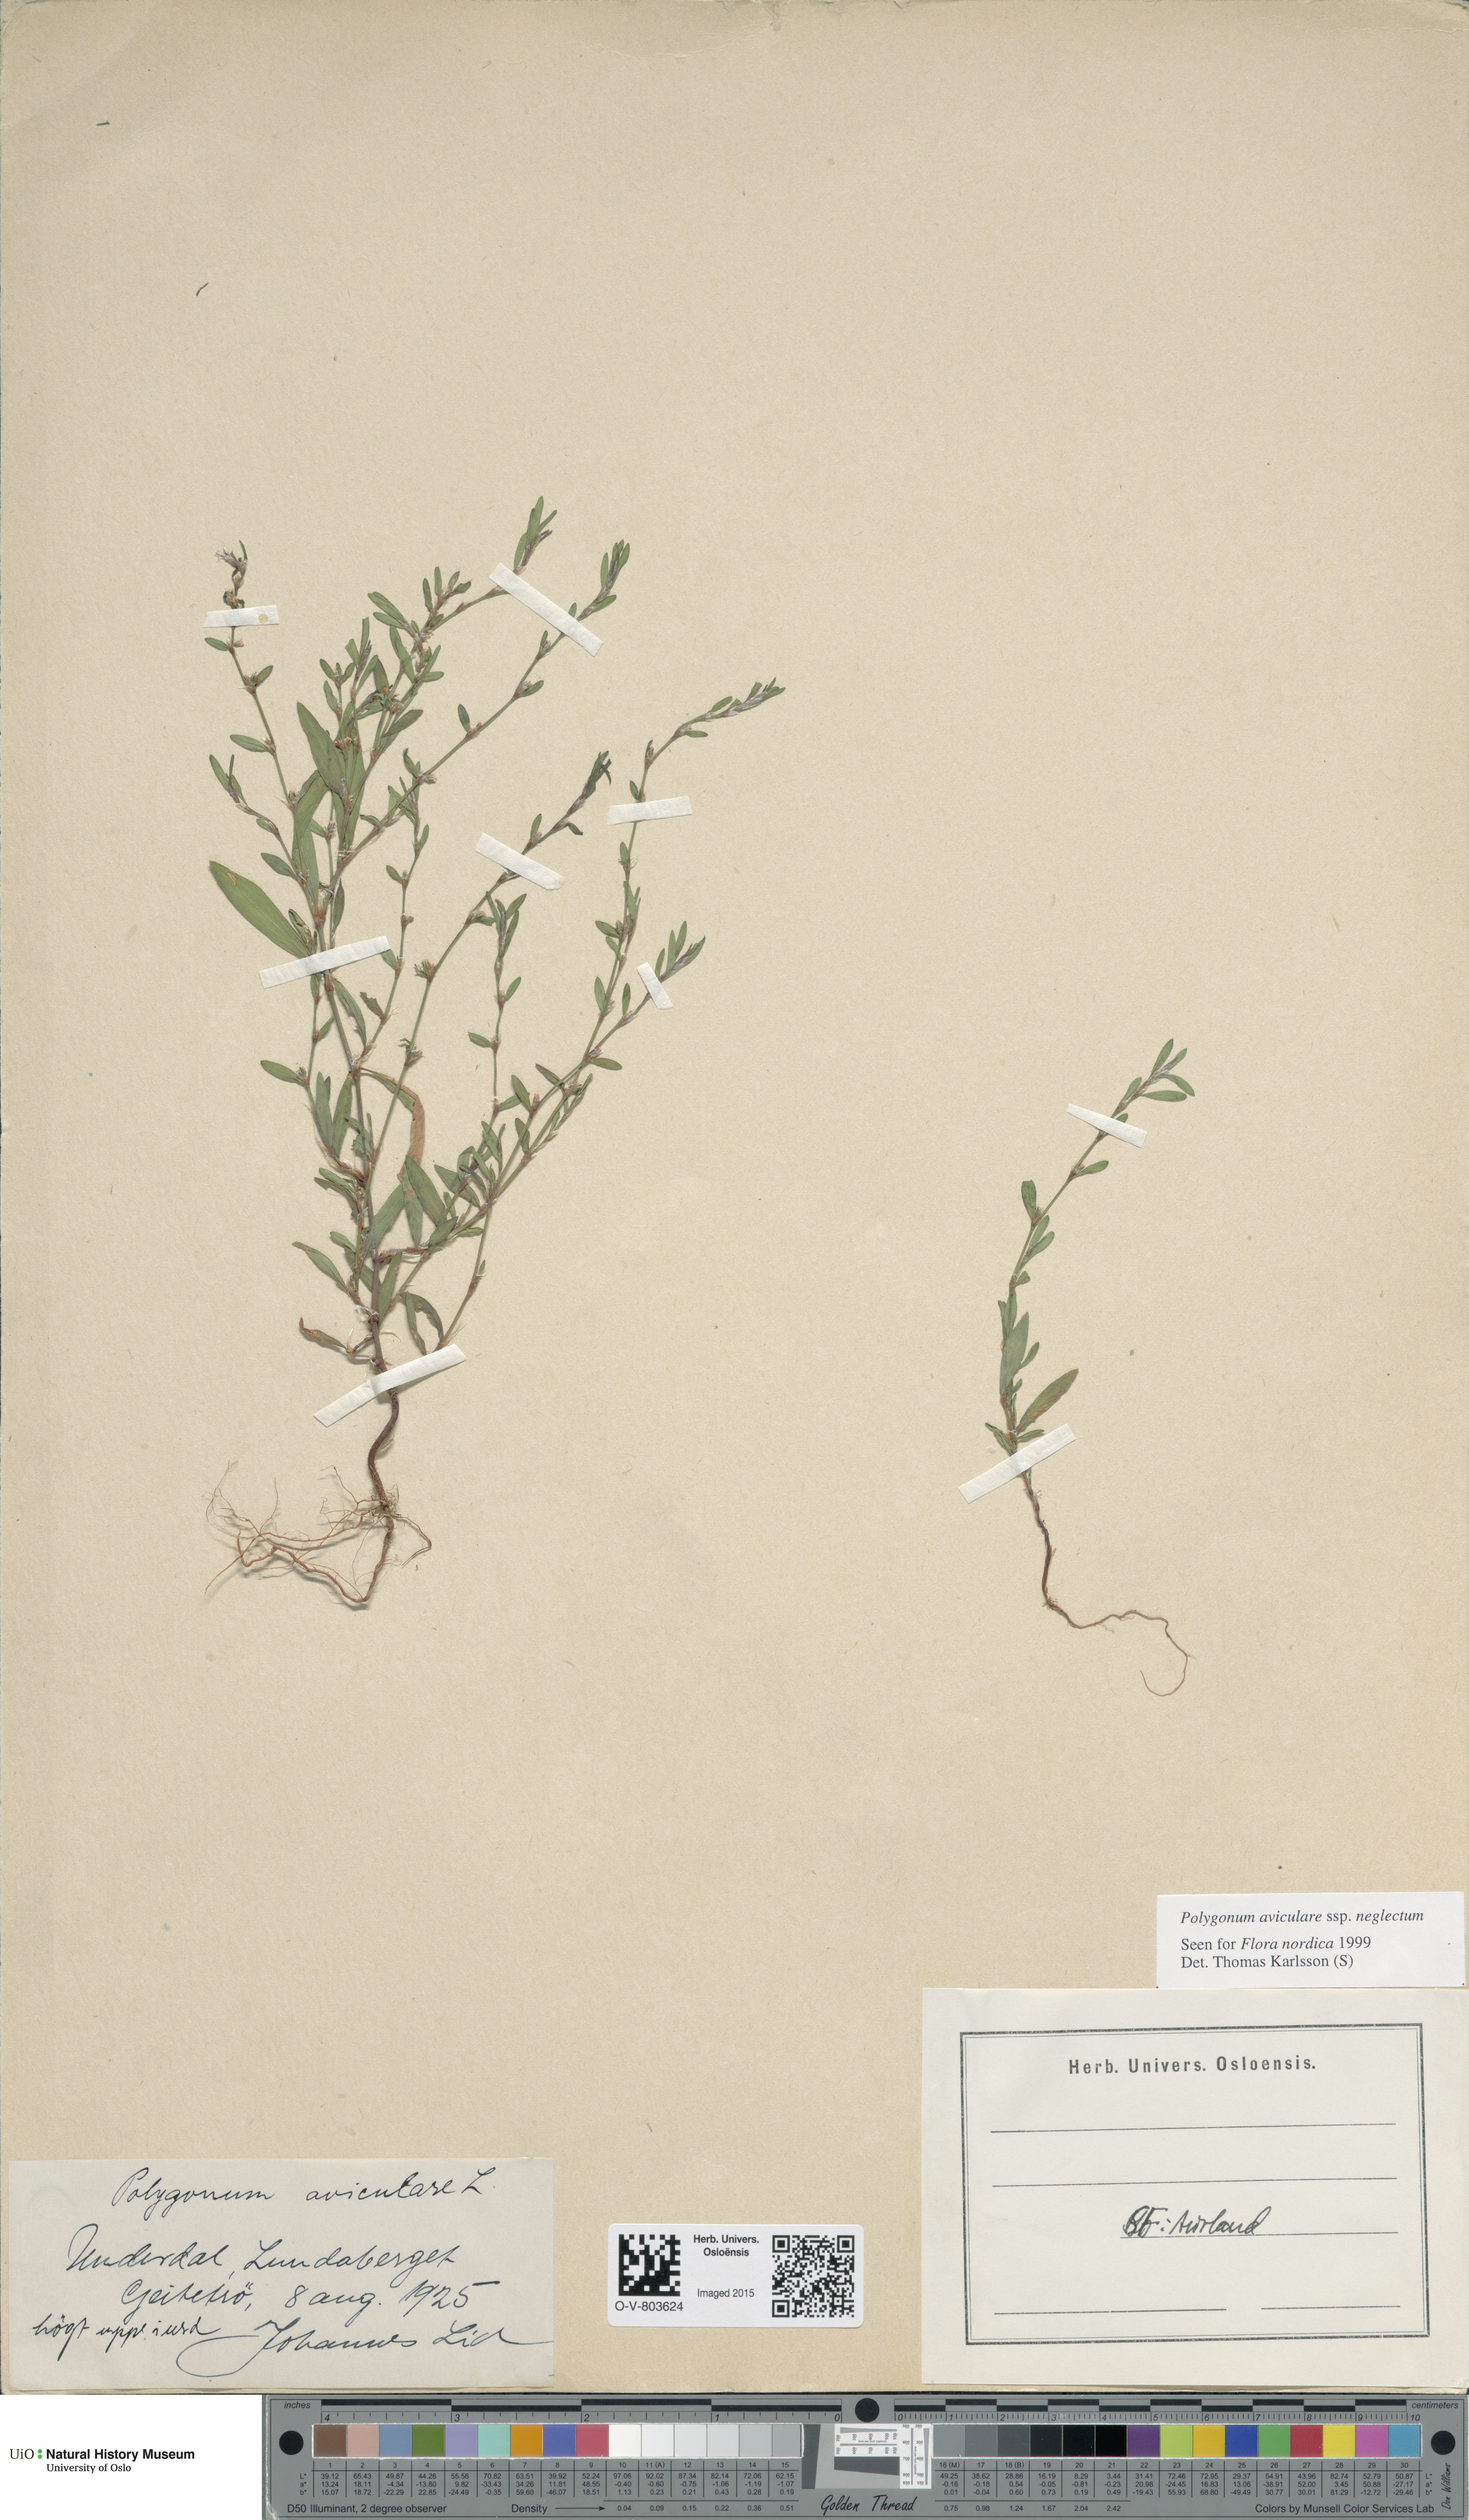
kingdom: Plantae
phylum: Tracheophyta
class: Magnoliopsida
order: Caryophyllales
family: Polygonaceae
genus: Polygonum
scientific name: Polygonum aviculare
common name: Prostrate knotweed
